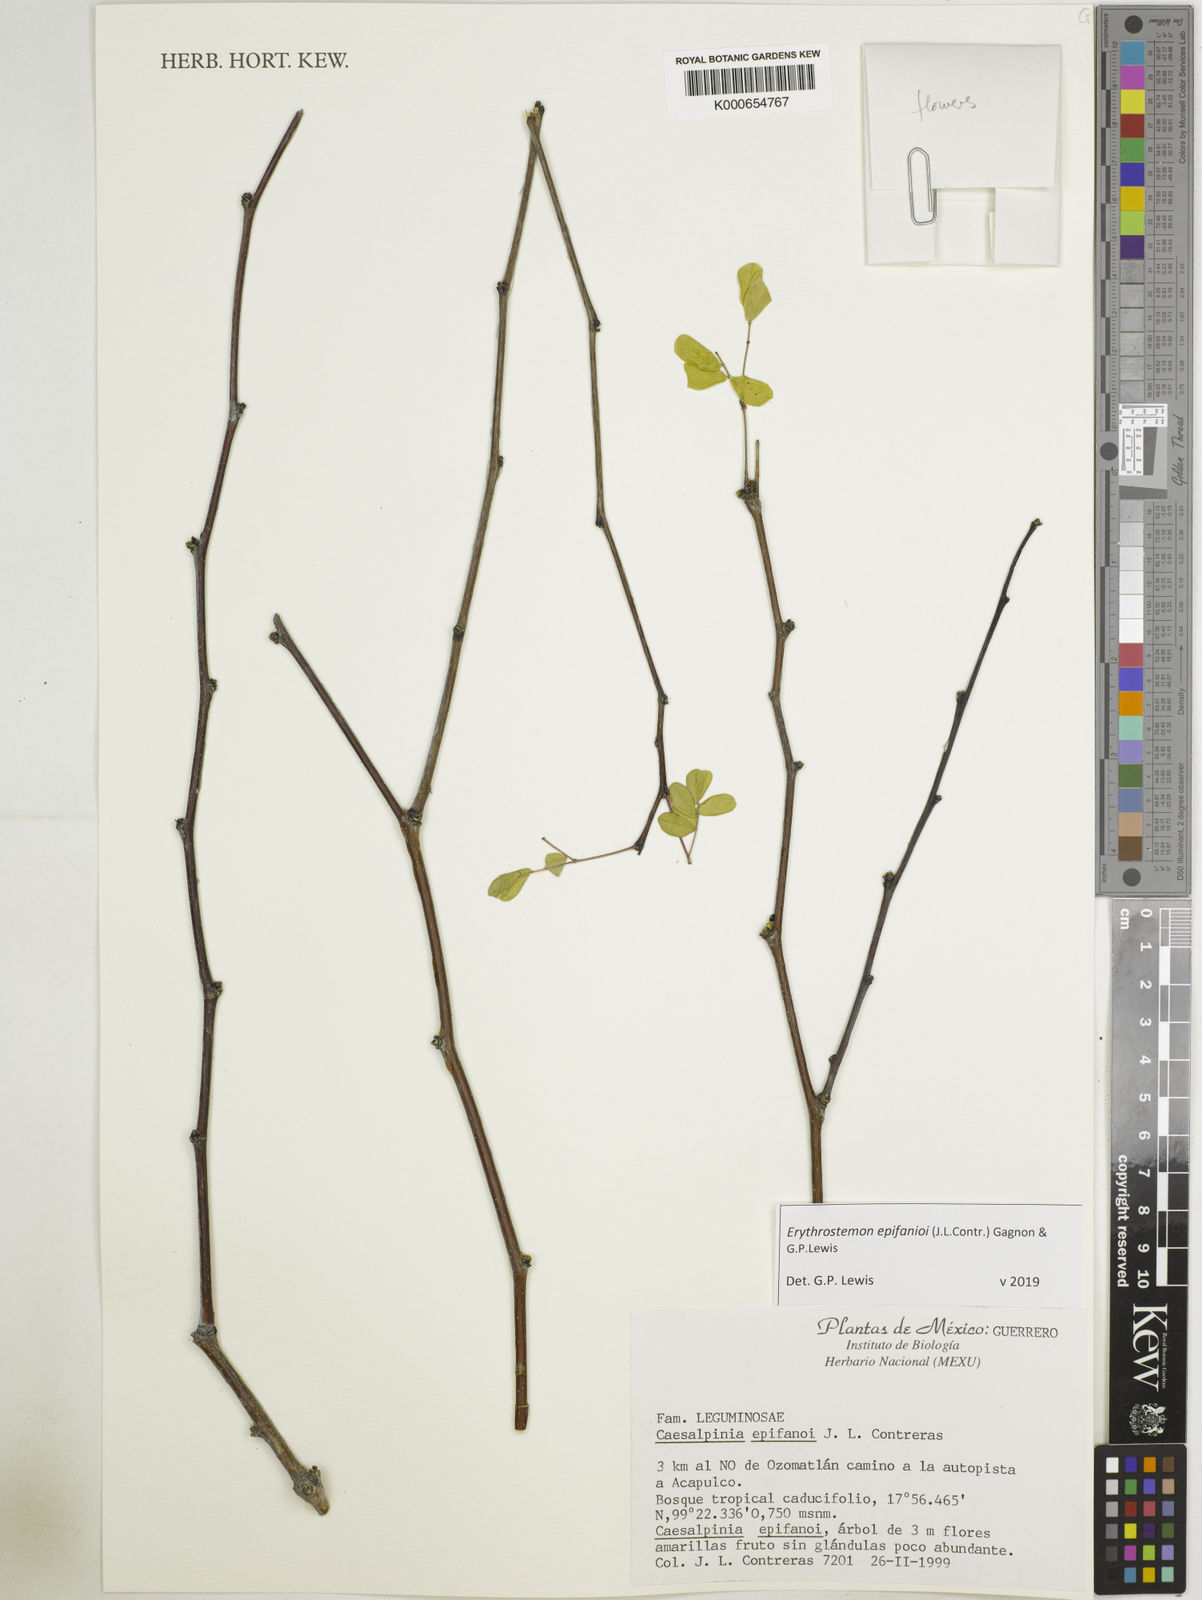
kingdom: Plantae
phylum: Tracheophyta
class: Magnoliopsida
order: Fabales
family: Fabaceae
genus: Erythrostemon
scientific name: Erythrostemon epifanioi
